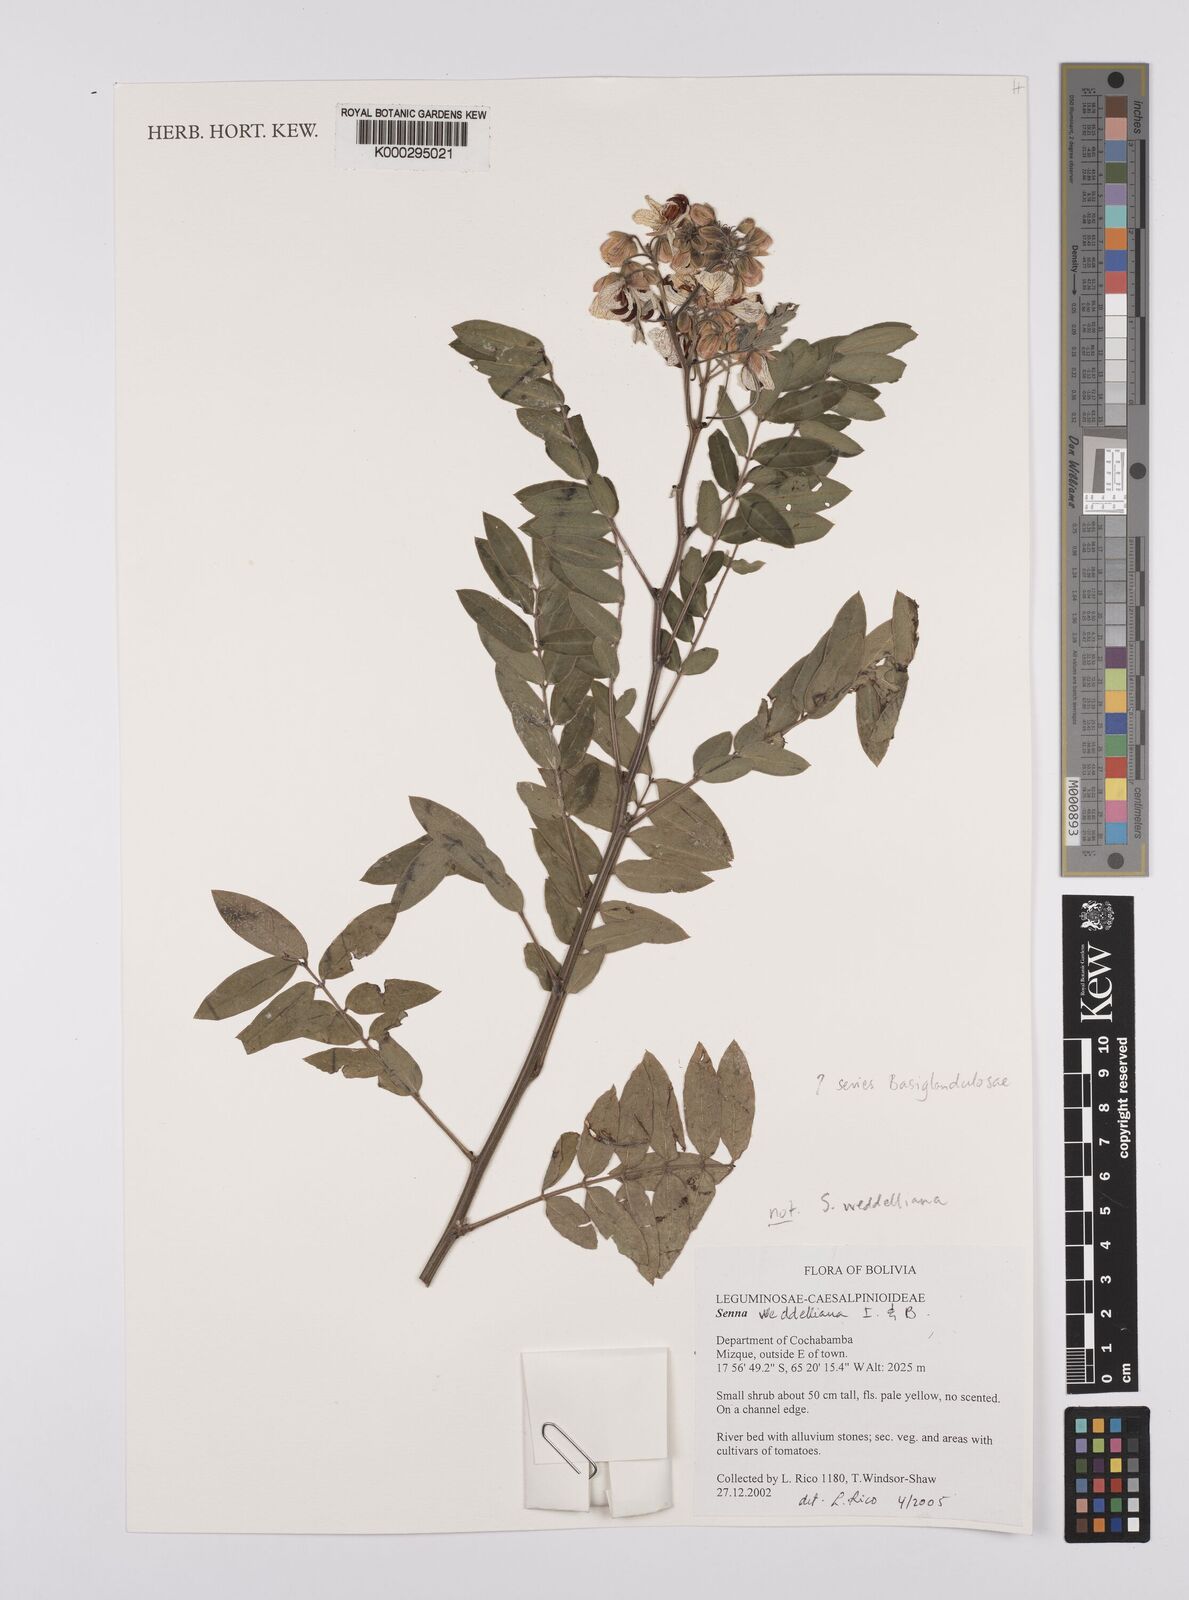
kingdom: Plantae
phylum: Tracheophyta
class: Magnoliopsida
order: Fabales
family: Fabaceae
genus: Senna
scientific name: Senna
